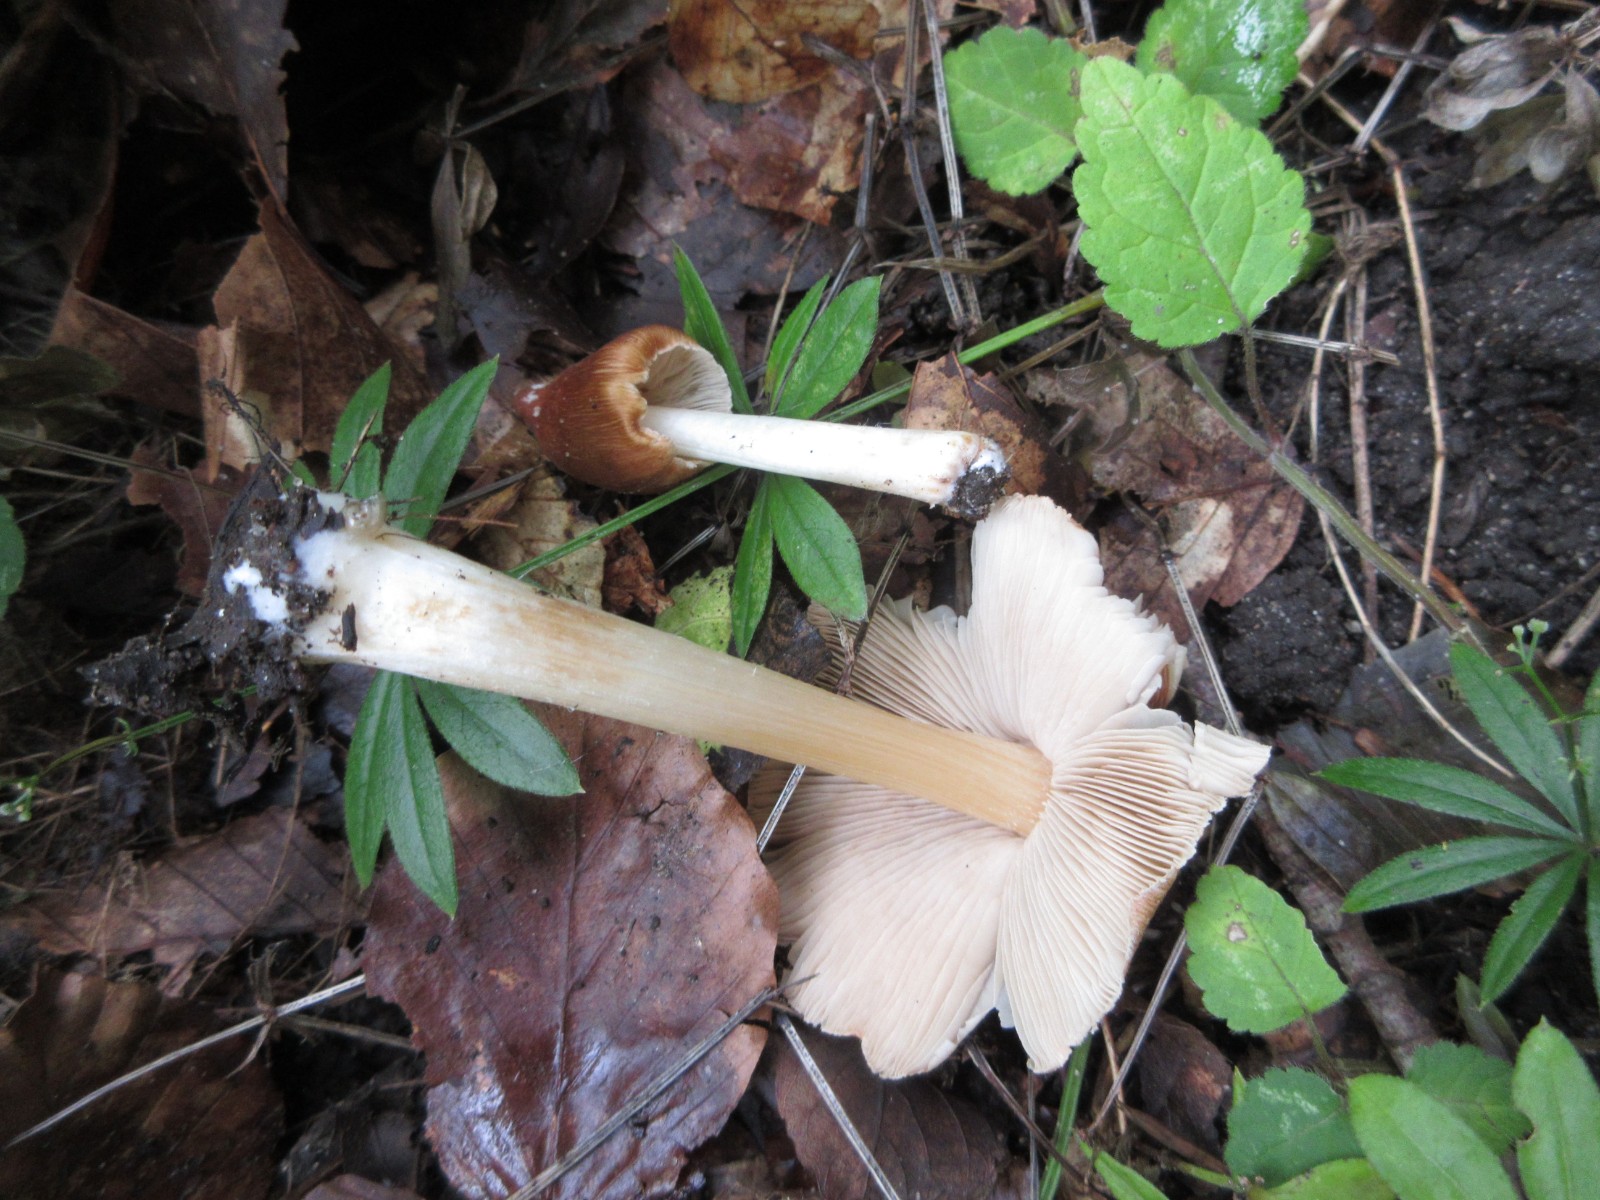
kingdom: Fungi
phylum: Basidiomycota
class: Agaricomycetes
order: Agaricales
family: Inocybaceae
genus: Inosperma
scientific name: Inosperma fulvum
